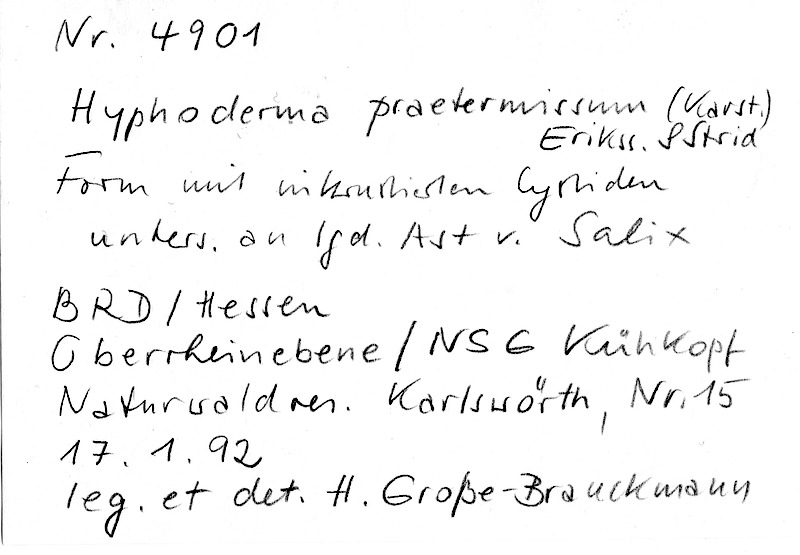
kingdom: Plantae
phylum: Tracheophyta
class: Magnoliopsida
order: Malpighiales
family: Salicaceae
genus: Salix
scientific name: Salix
